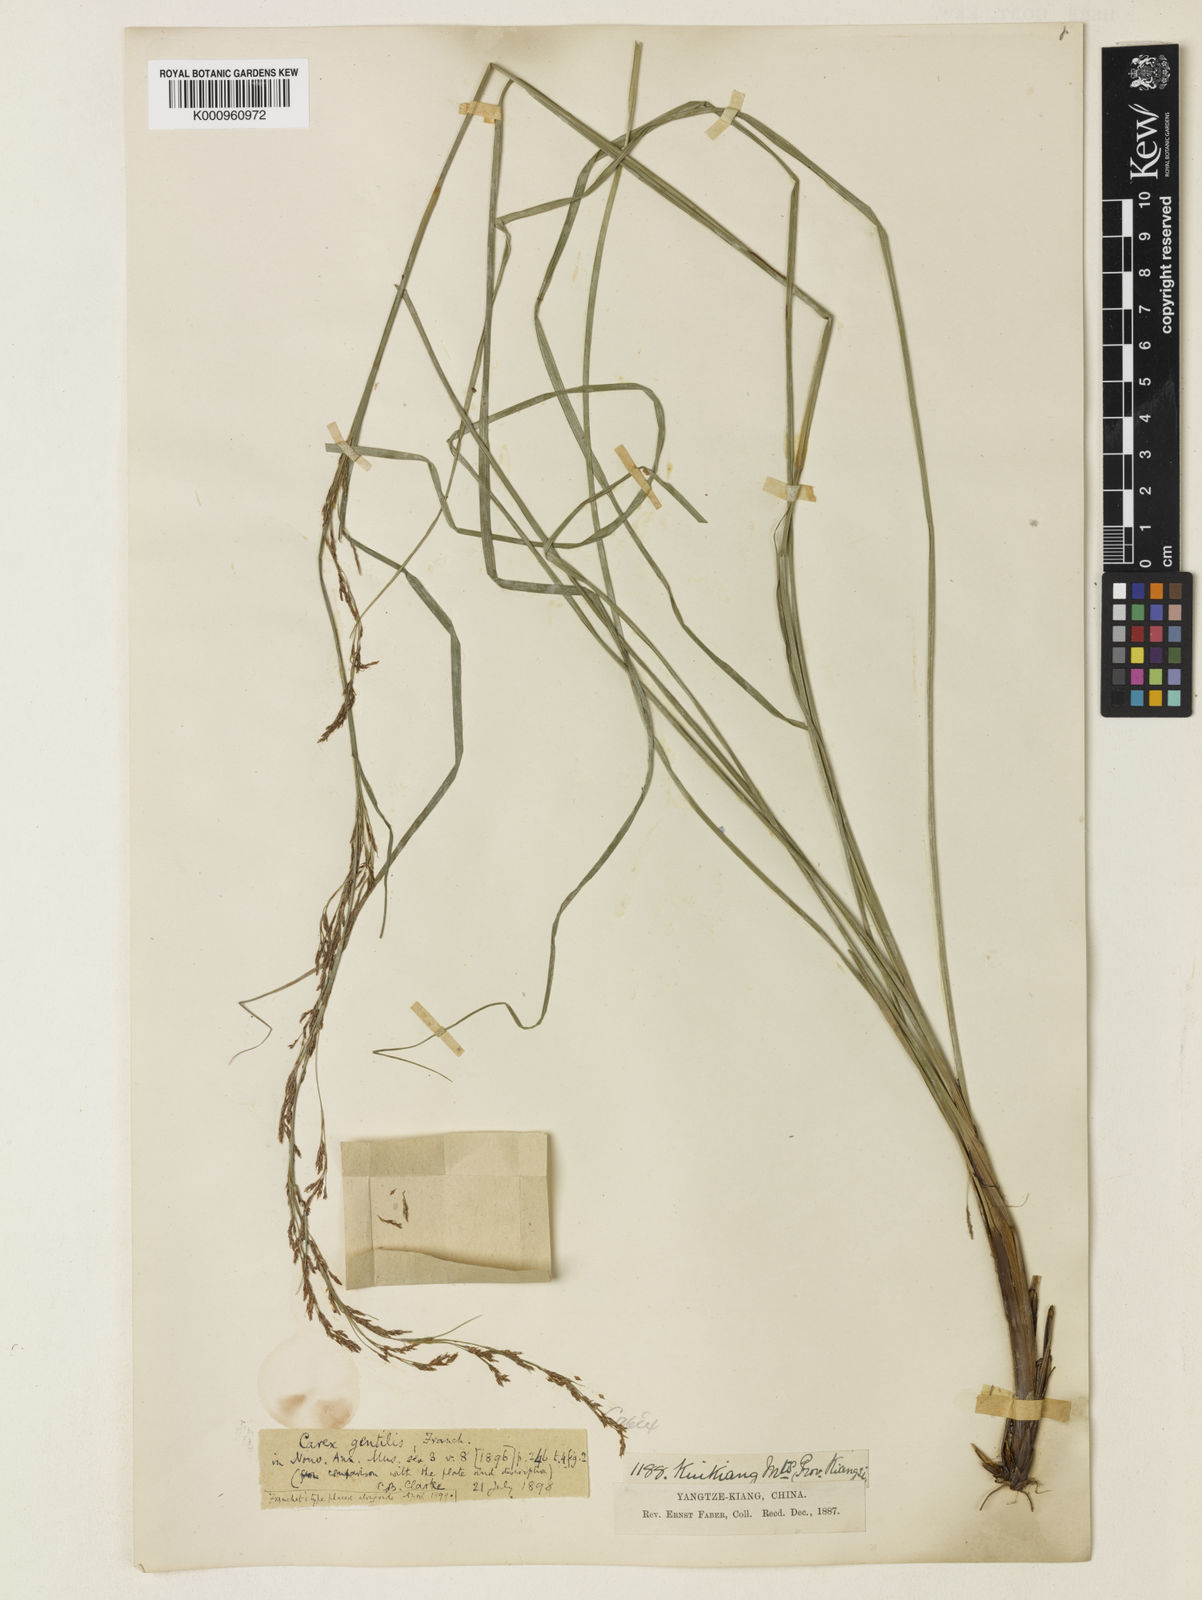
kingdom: Plantae
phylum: Tracheophyta
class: Liliopsida
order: Poales
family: Cyperaceae
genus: Carex
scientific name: Carex gentilis
